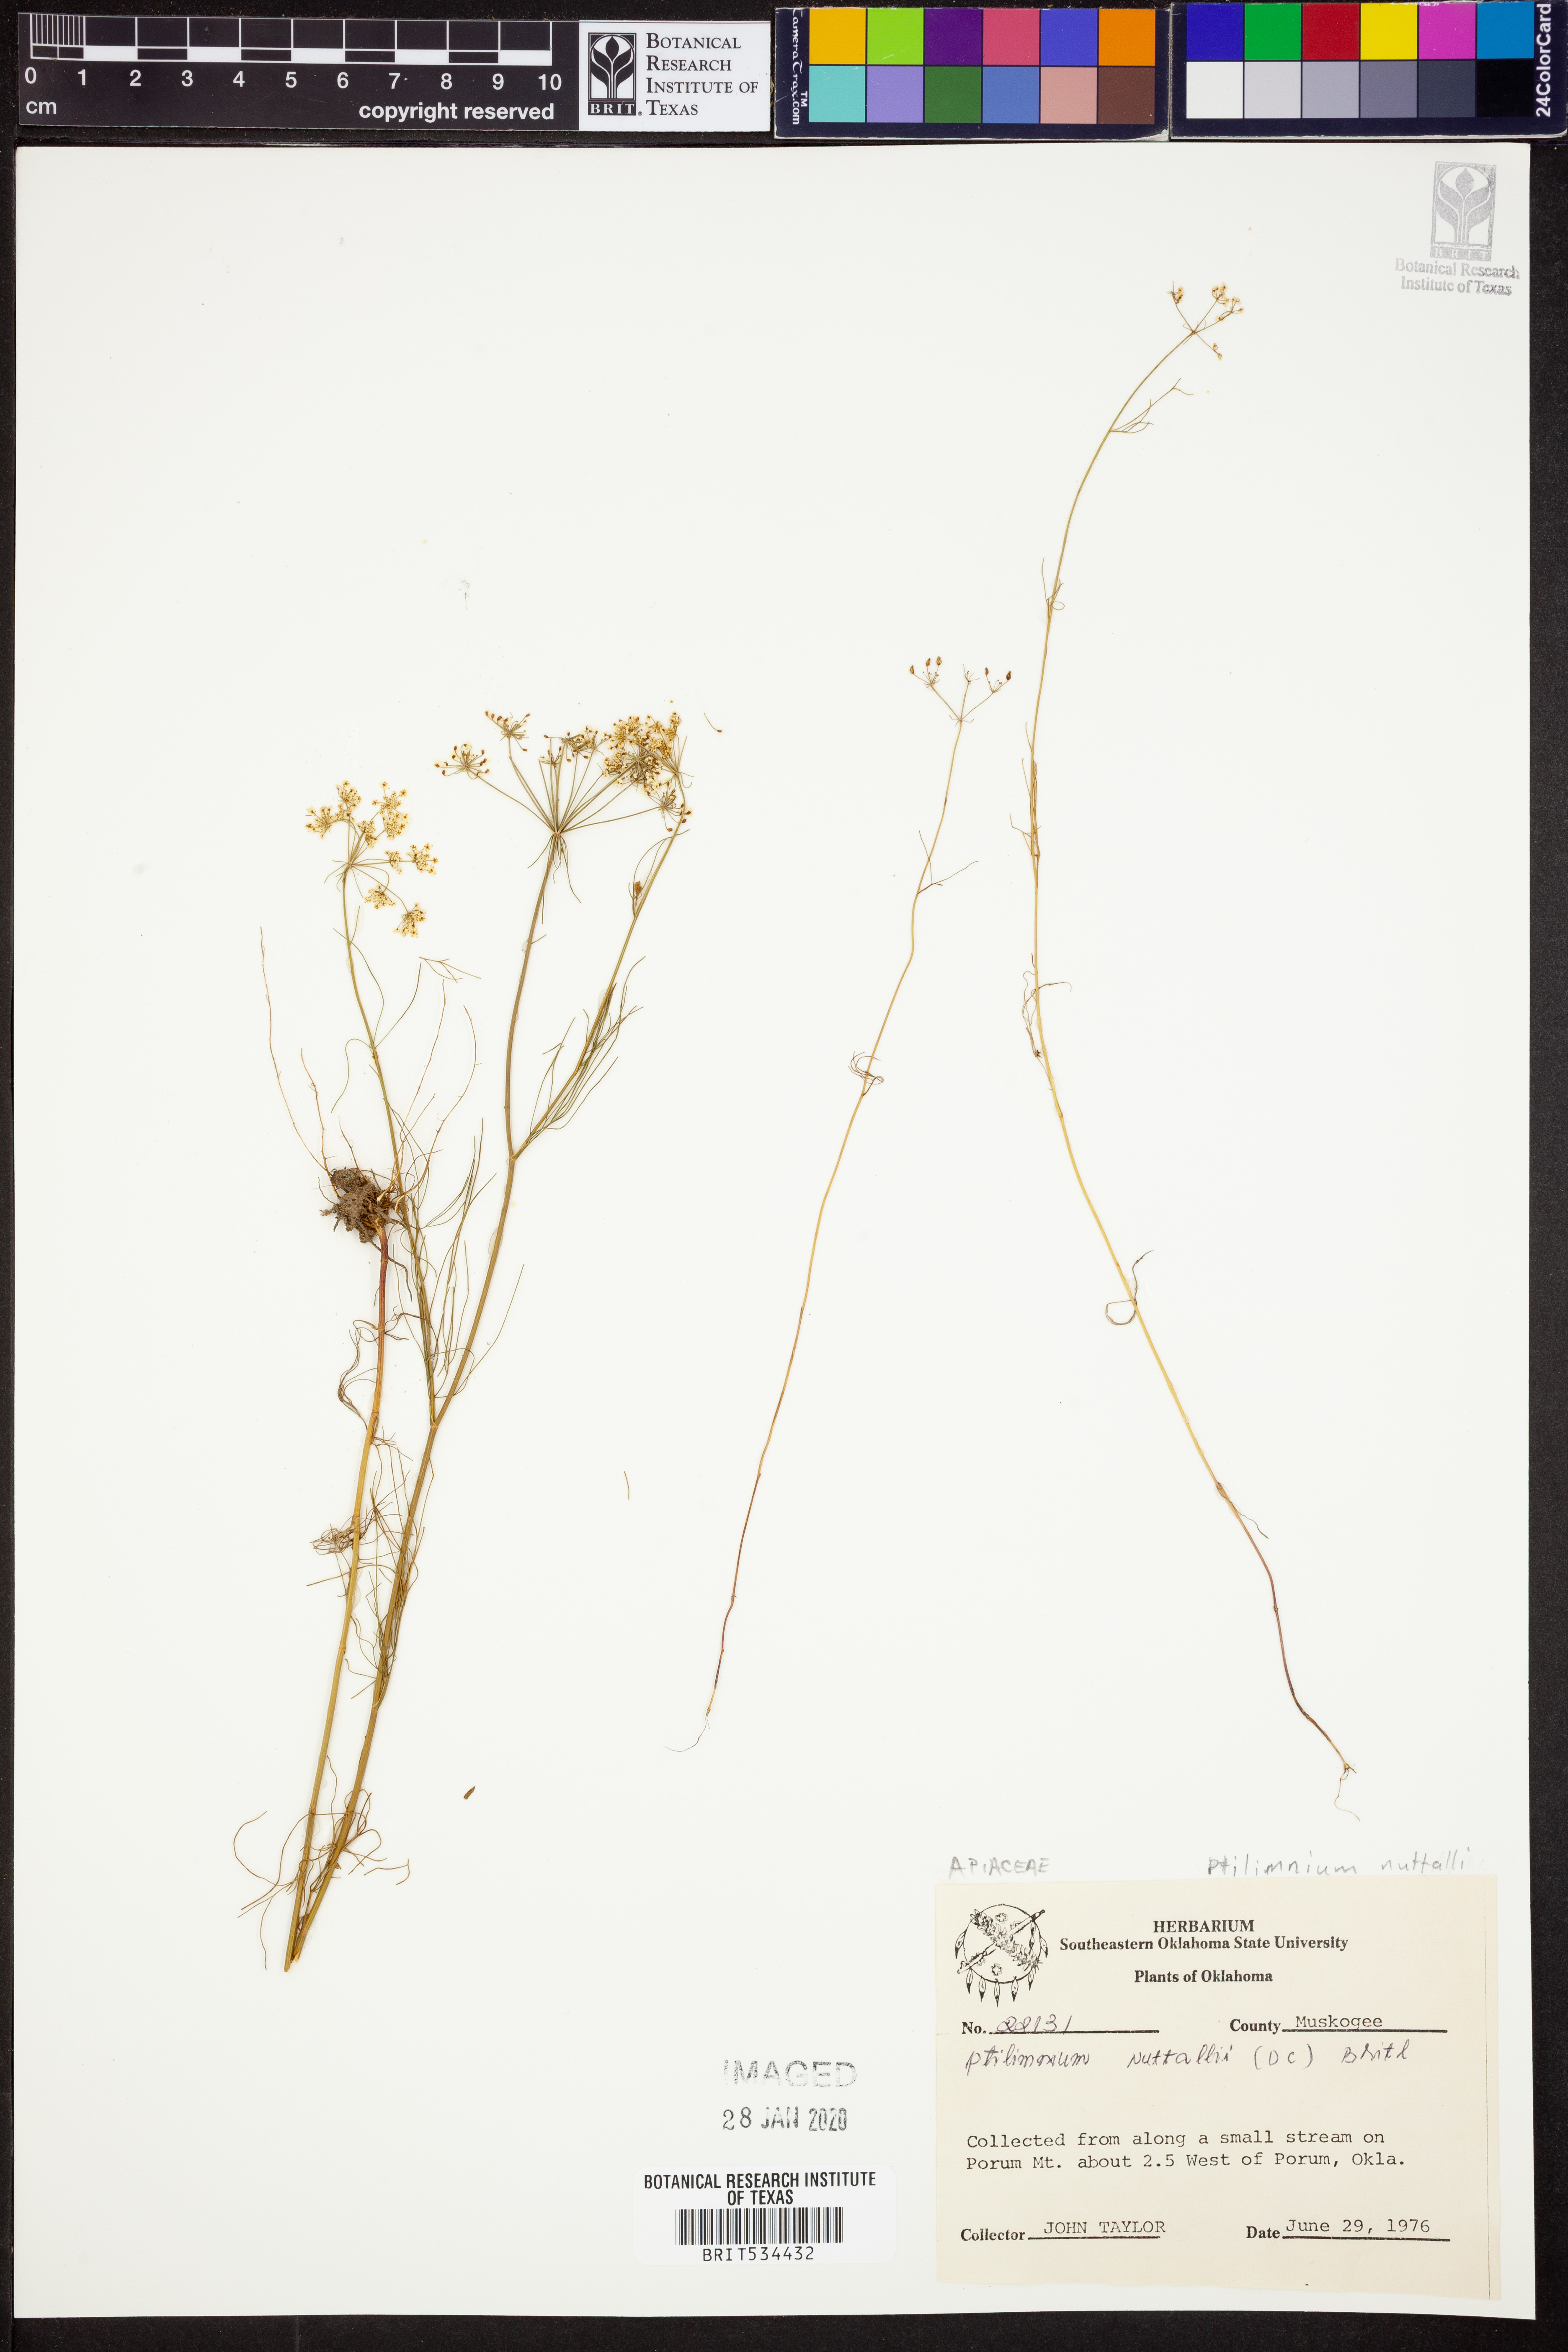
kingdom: Plantae
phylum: Tracheophyta
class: Magnoliopsida
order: Apiales
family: Apiaceae
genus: Ptilimnium
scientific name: Ptilimnium nuttallii
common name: Ozark bishop's-weed
